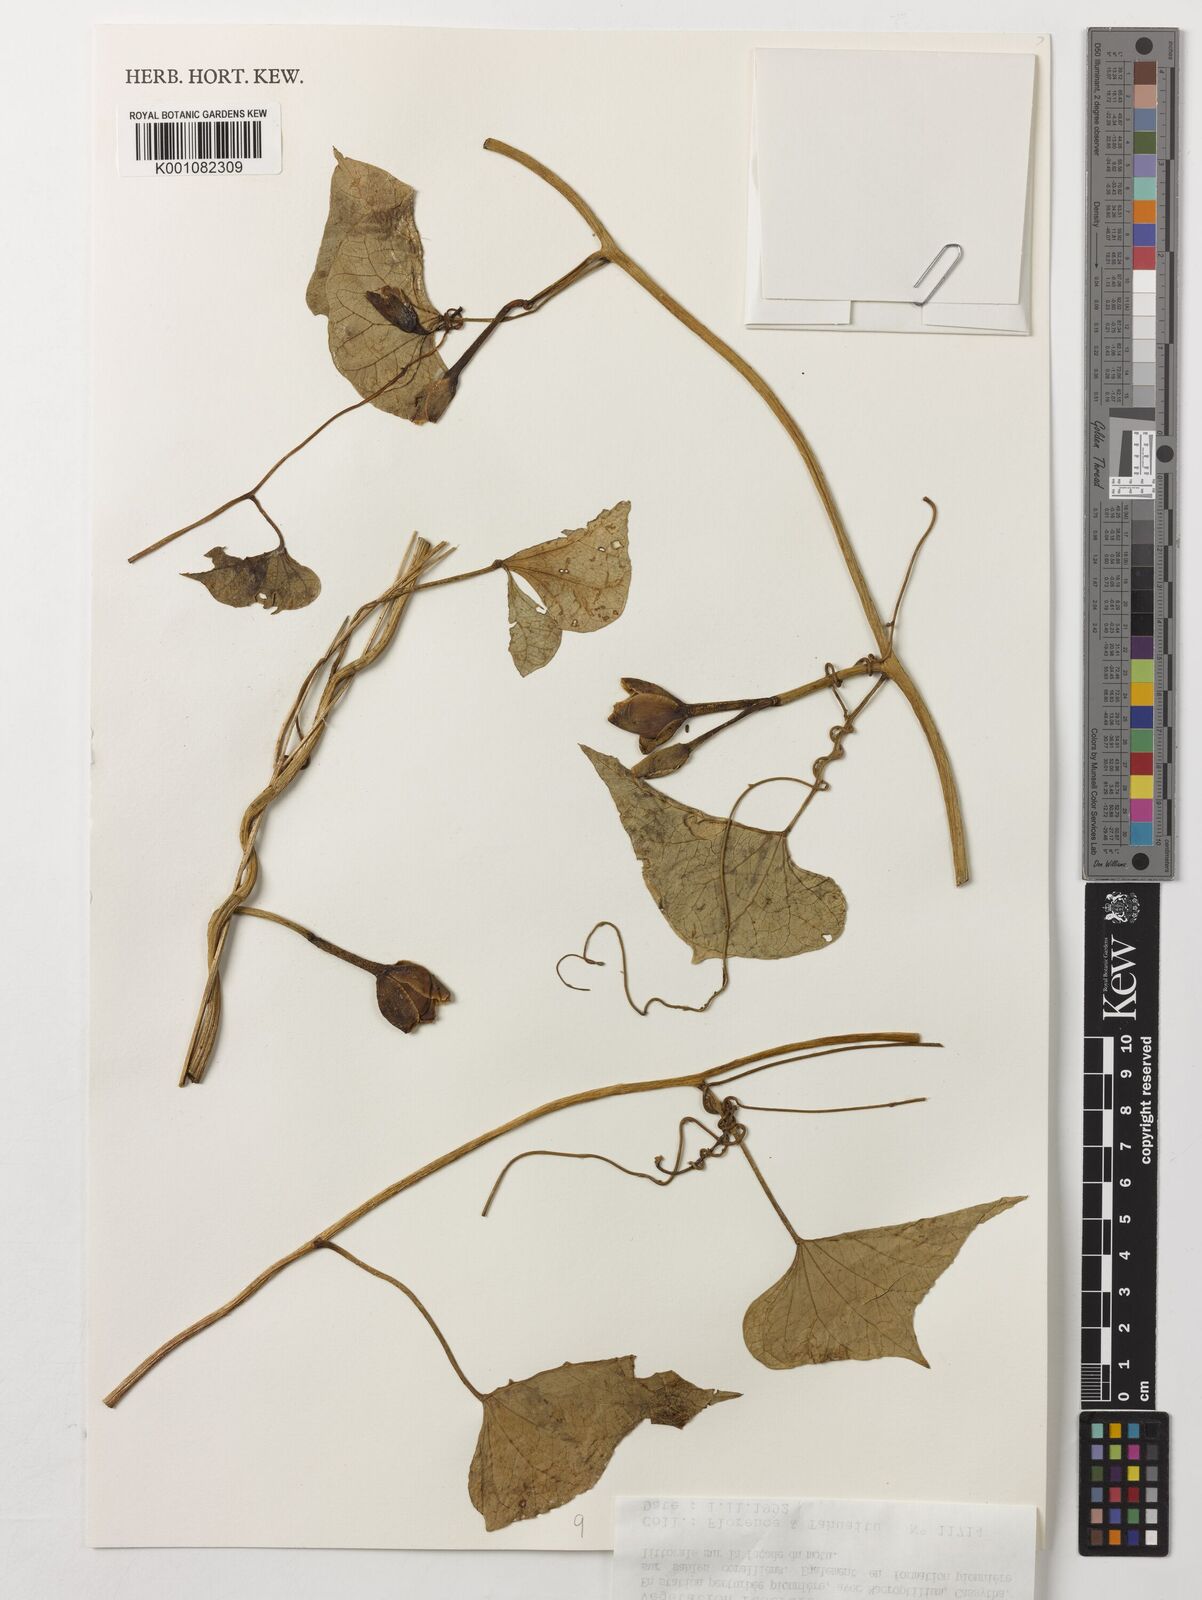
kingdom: Plantae
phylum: Tracheophyta
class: Magnoliopsida
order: Solanales
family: Convolvulaceae
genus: Ipomoea
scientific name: Ipomoea violacea
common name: Beach moonflower
